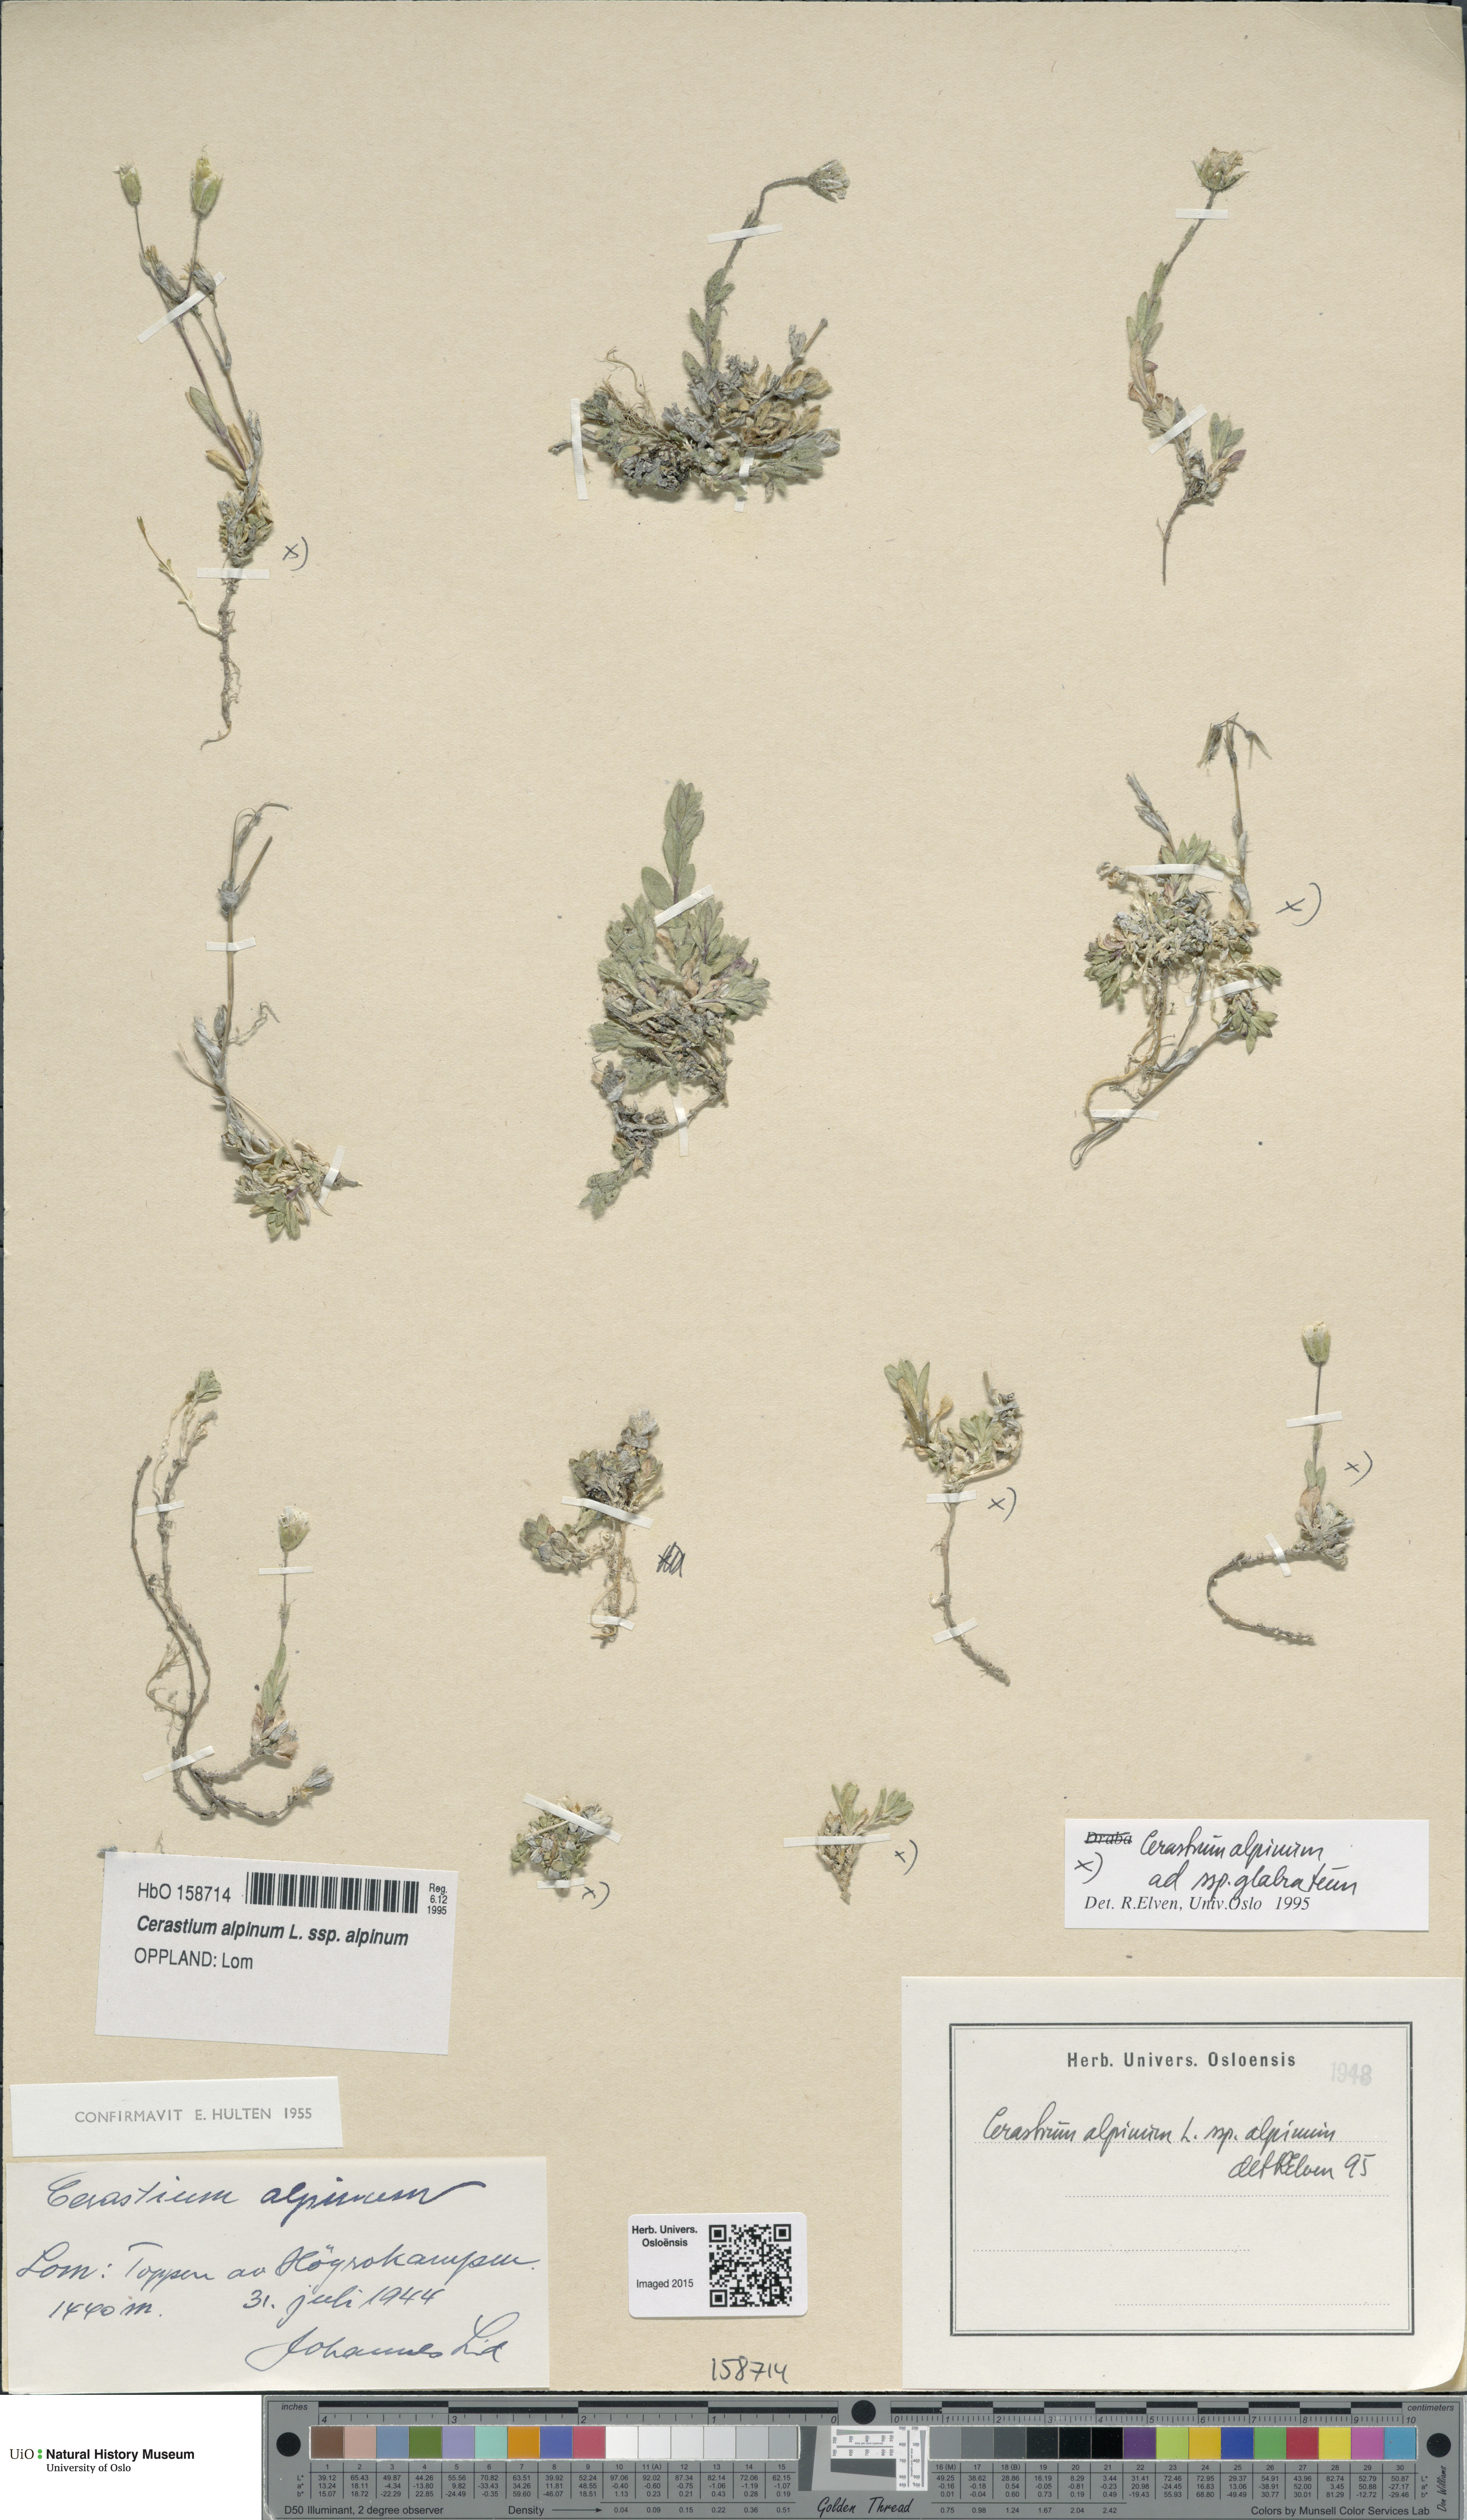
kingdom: Plantae
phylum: Tracheophyta
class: Magnoliopsida
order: Caryophyllales
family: Caryophyllaceae
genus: Cerastium
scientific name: Cerastium alpinum
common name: Alpine mouse-ear
